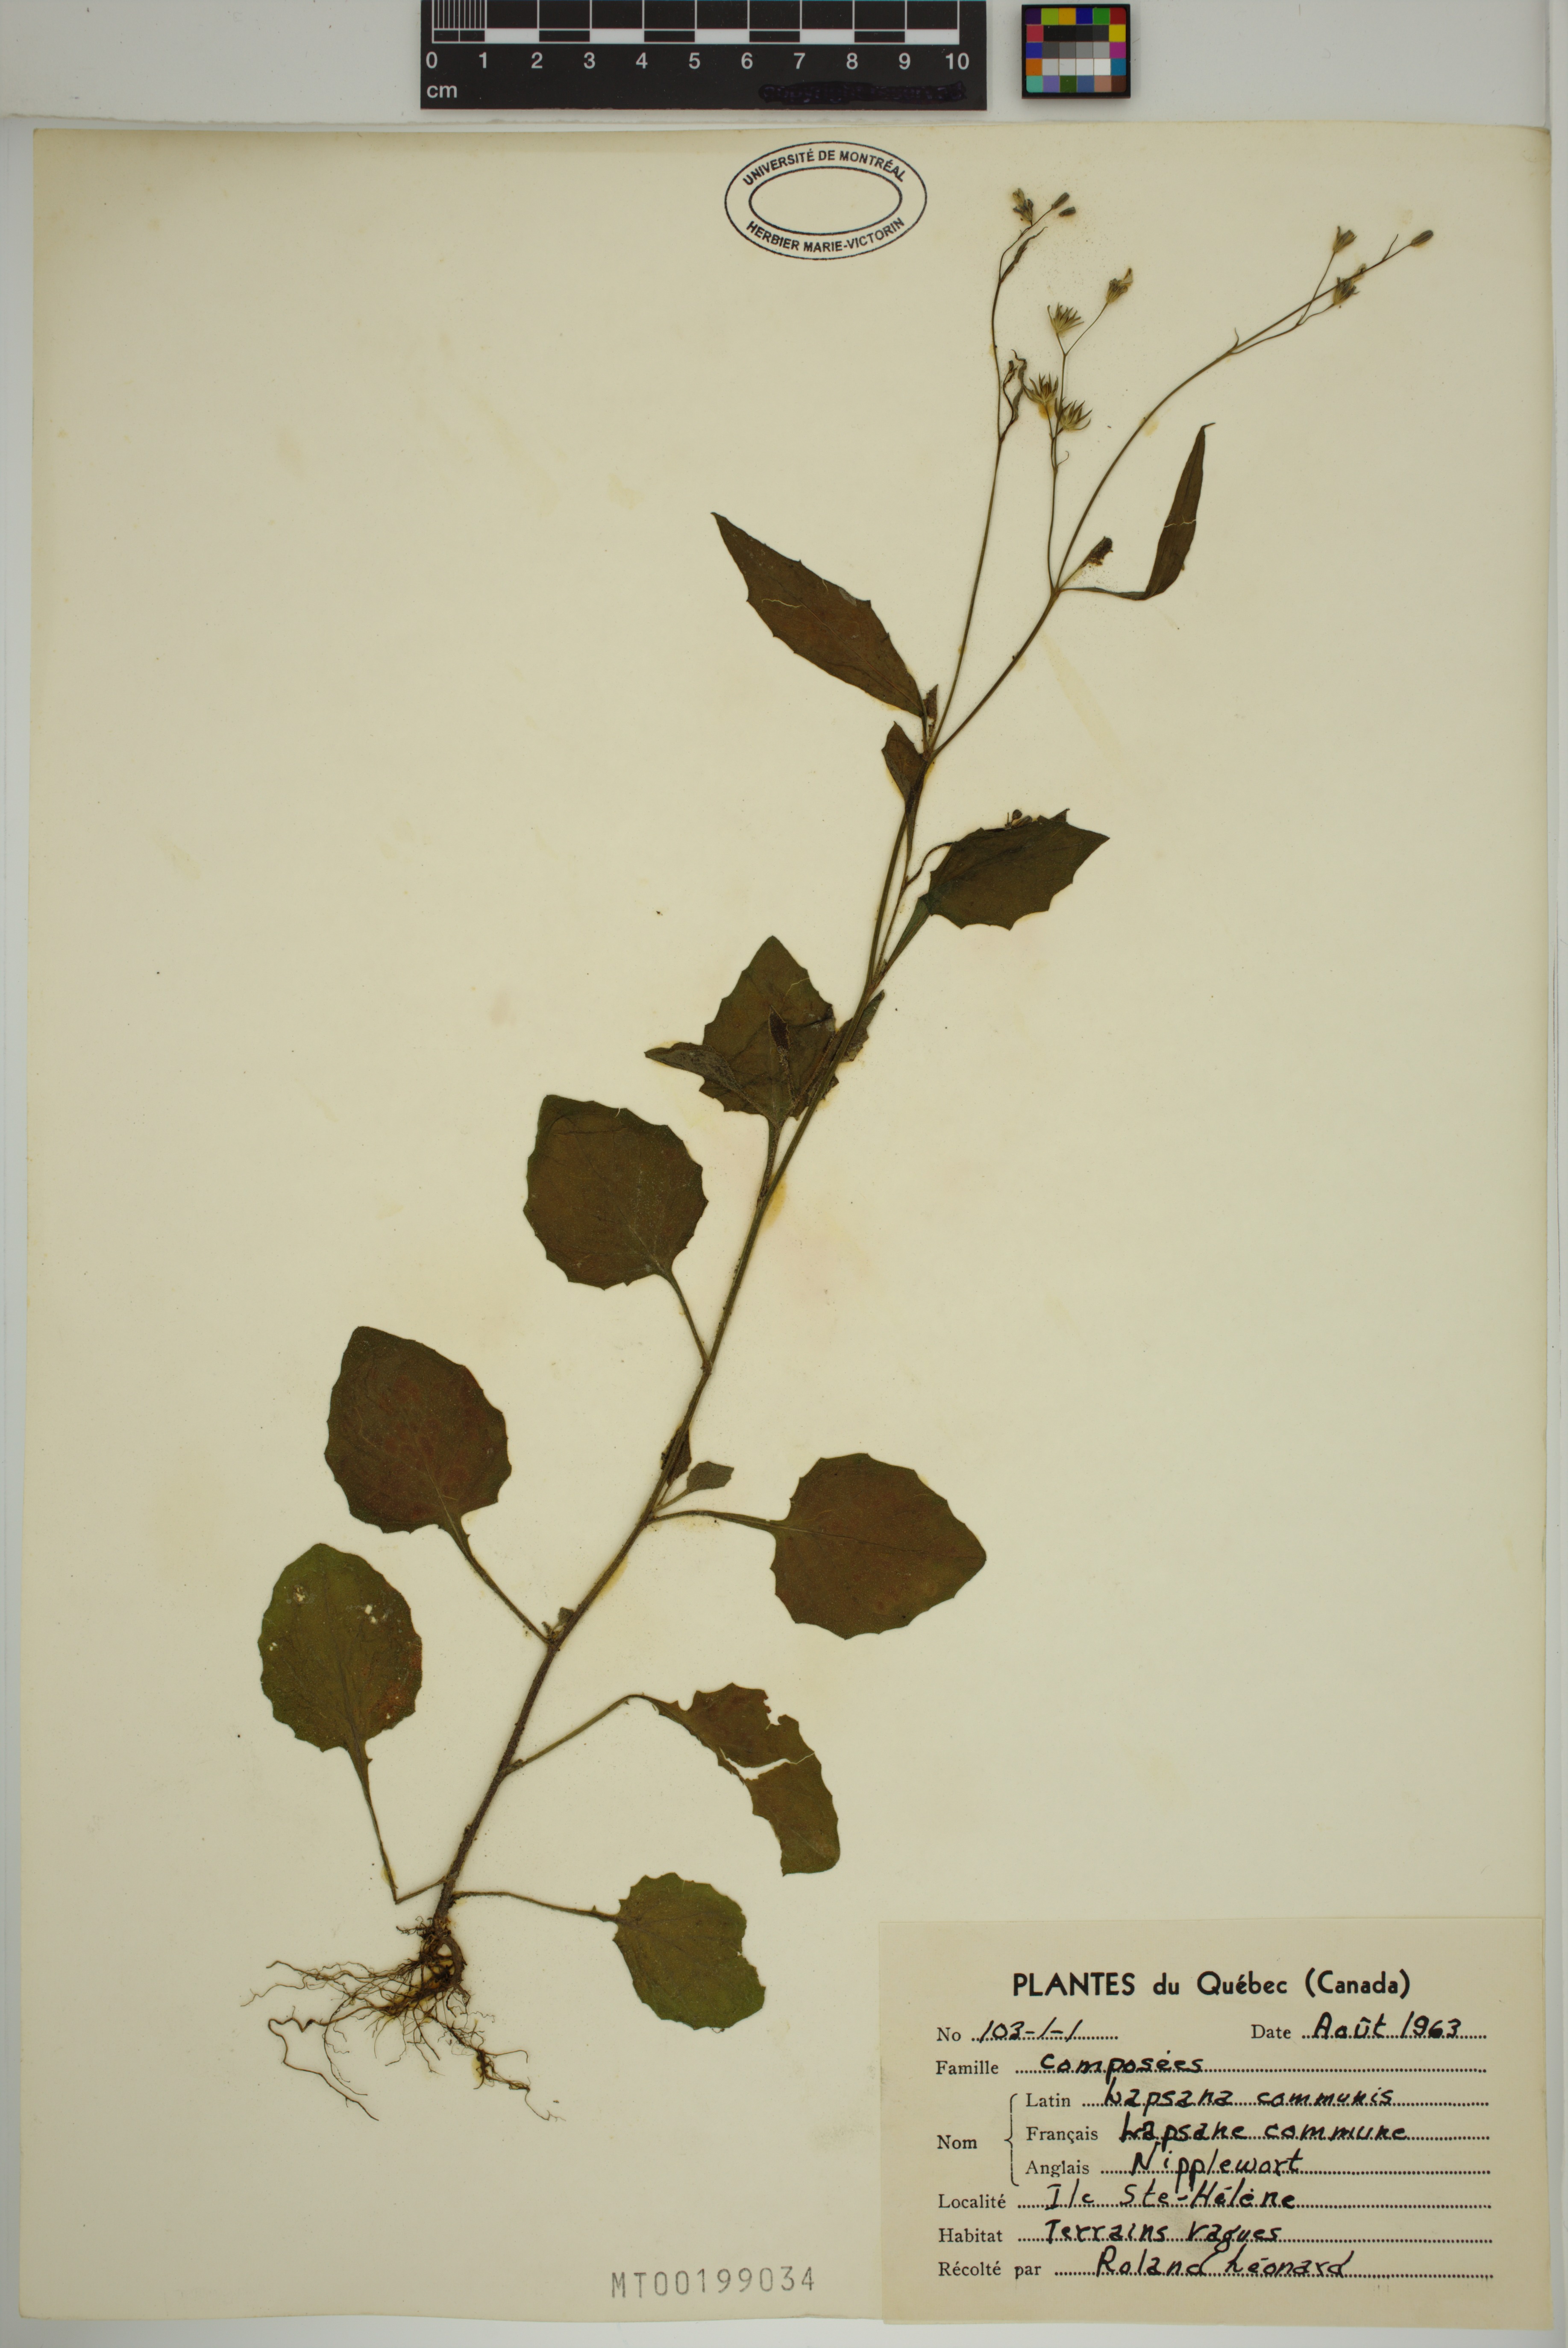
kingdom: Plantae
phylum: Tracheophyta
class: Magnoliopsida
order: Asterales
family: Asteraceae
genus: Lapsana
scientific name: Lapsana communis
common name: Nipplewort
